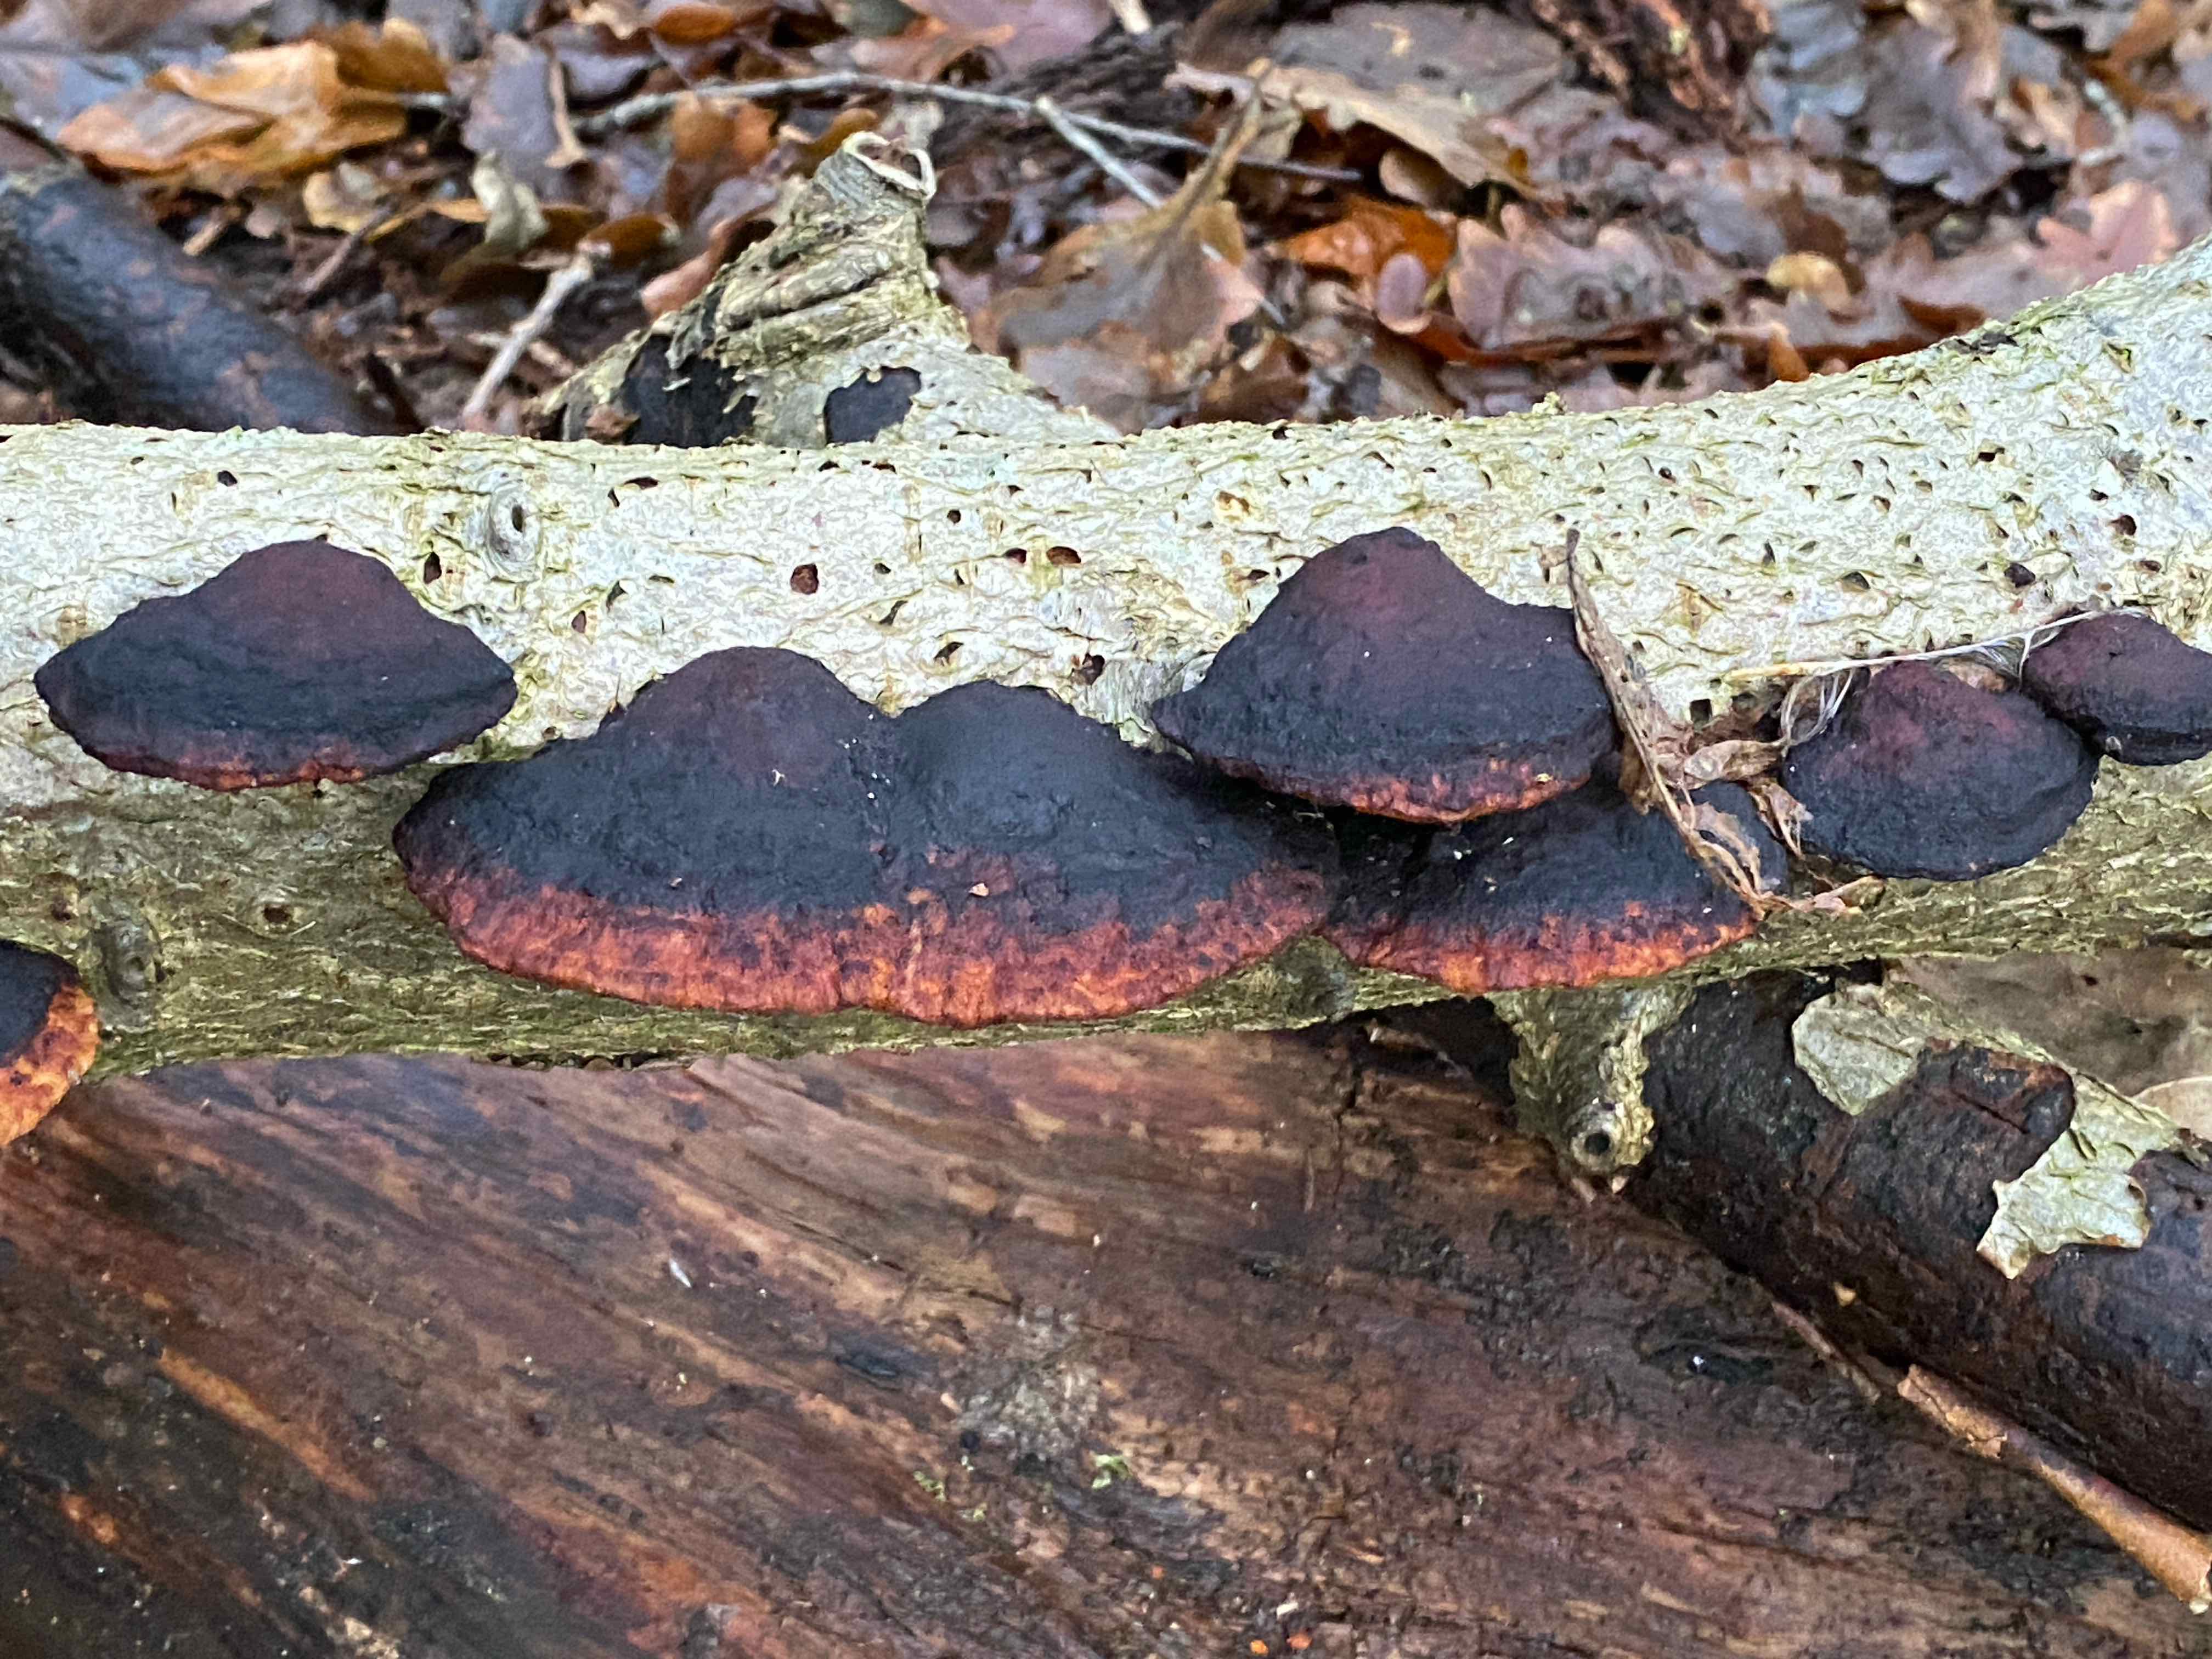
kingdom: Fungi
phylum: Basidiomycota
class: Agaricomycetes
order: Polyporales
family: Polyporaceae
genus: Daedaleopsis
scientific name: Daedaleopsis confragosa
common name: rødmende læderporesvamp
